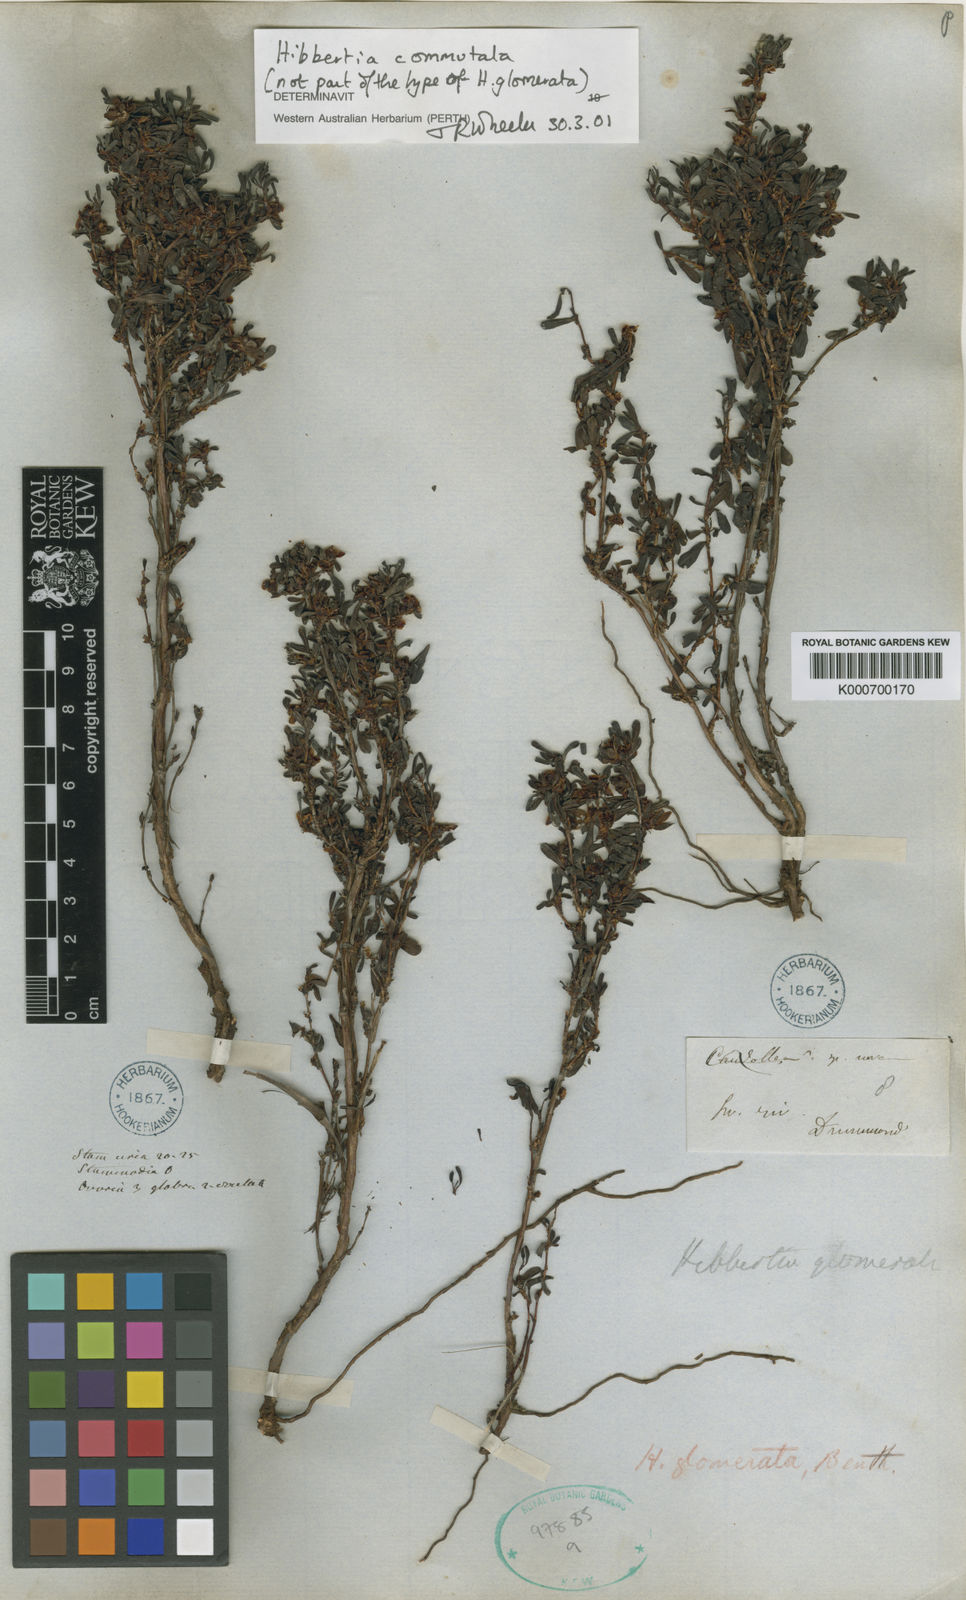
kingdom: Plantae
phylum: Tracheophyta
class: Magnoliopsida
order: Dilleniales
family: Dilleniaceae
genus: Hibbertia
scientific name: Hibbertia glomerata
